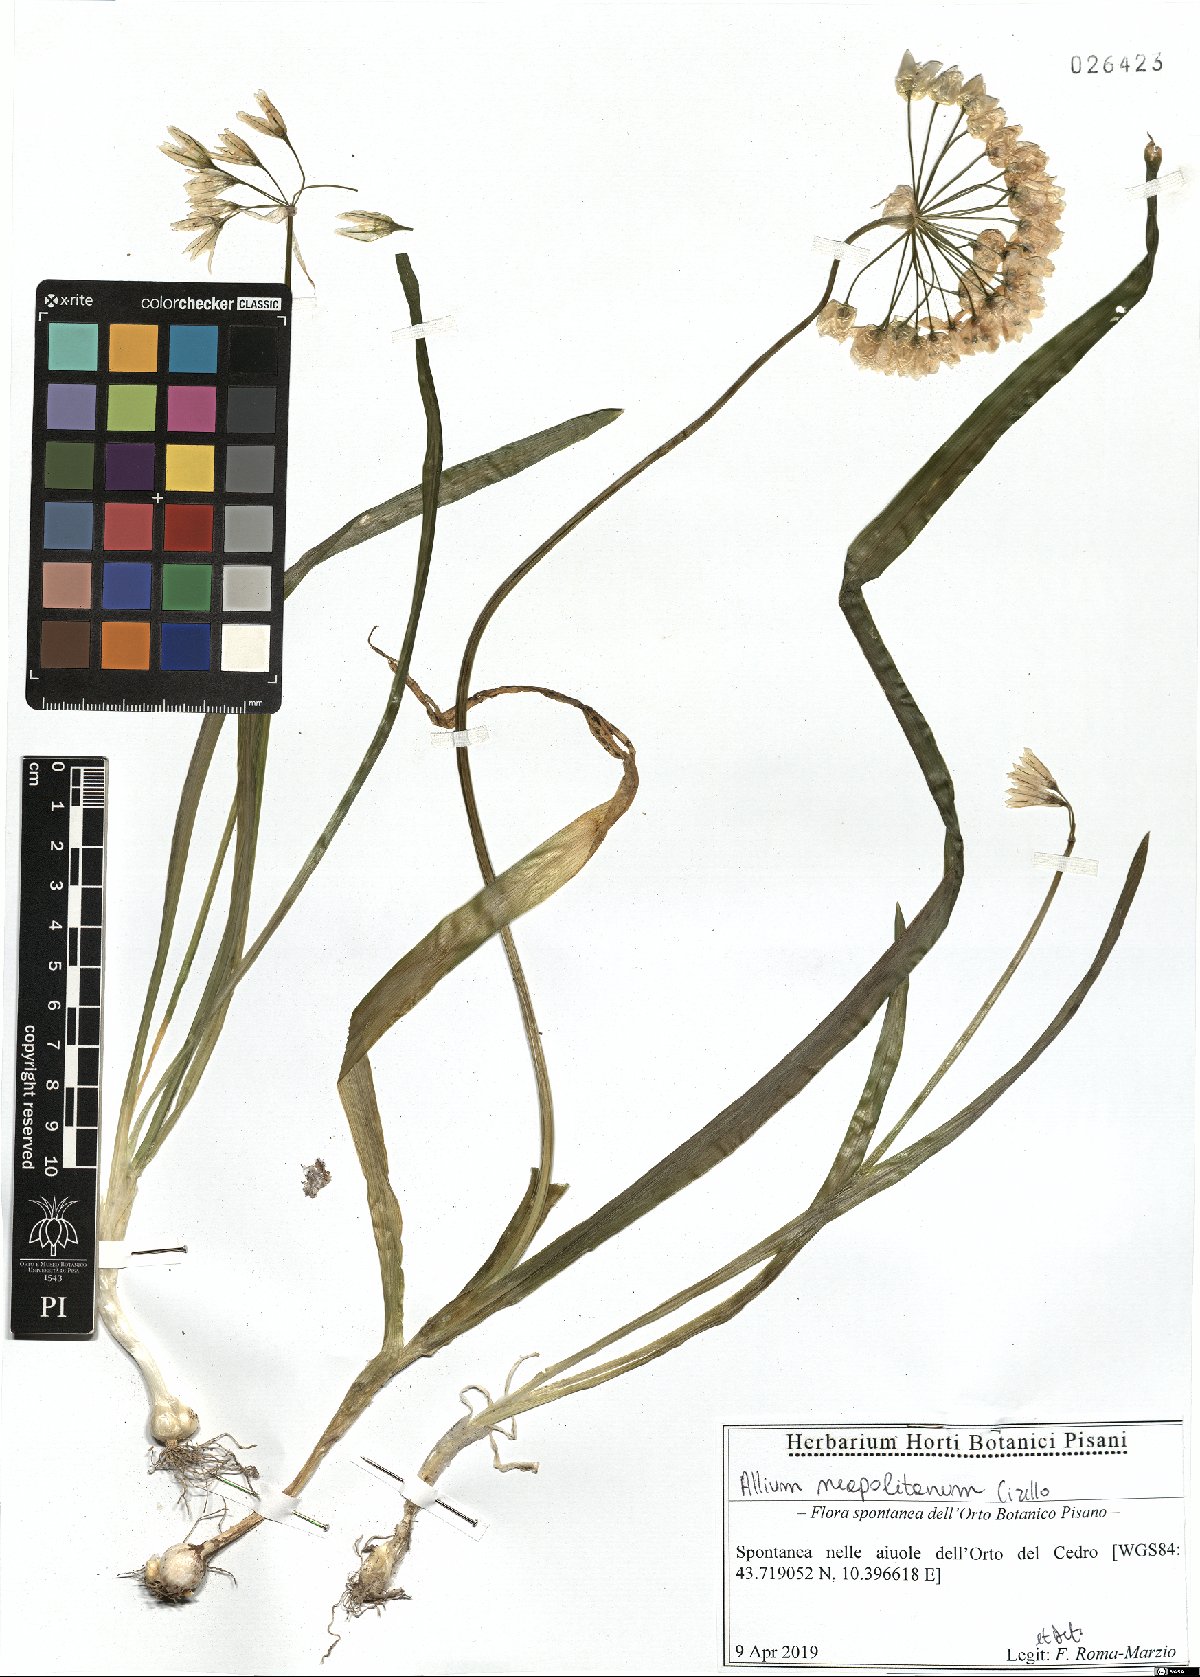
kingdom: Plantae
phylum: Tracheophyta
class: Liliopsida
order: Asparagales
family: Amaryllidaceae
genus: Allium
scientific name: Allium neapolitanum
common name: Neapolitan garlic
